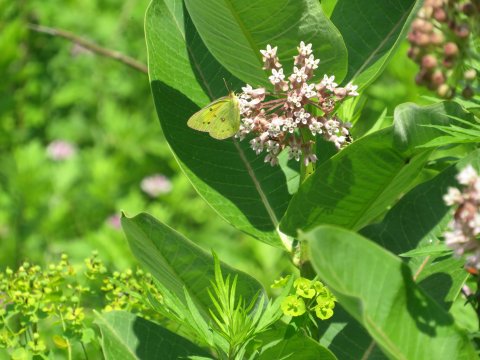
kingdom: Animalia
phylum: Arthropoda
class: Insecta
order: Lepidoptera
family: Pieridae
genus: Colias
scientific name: Colias philodice
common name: Clouded Sulphur
